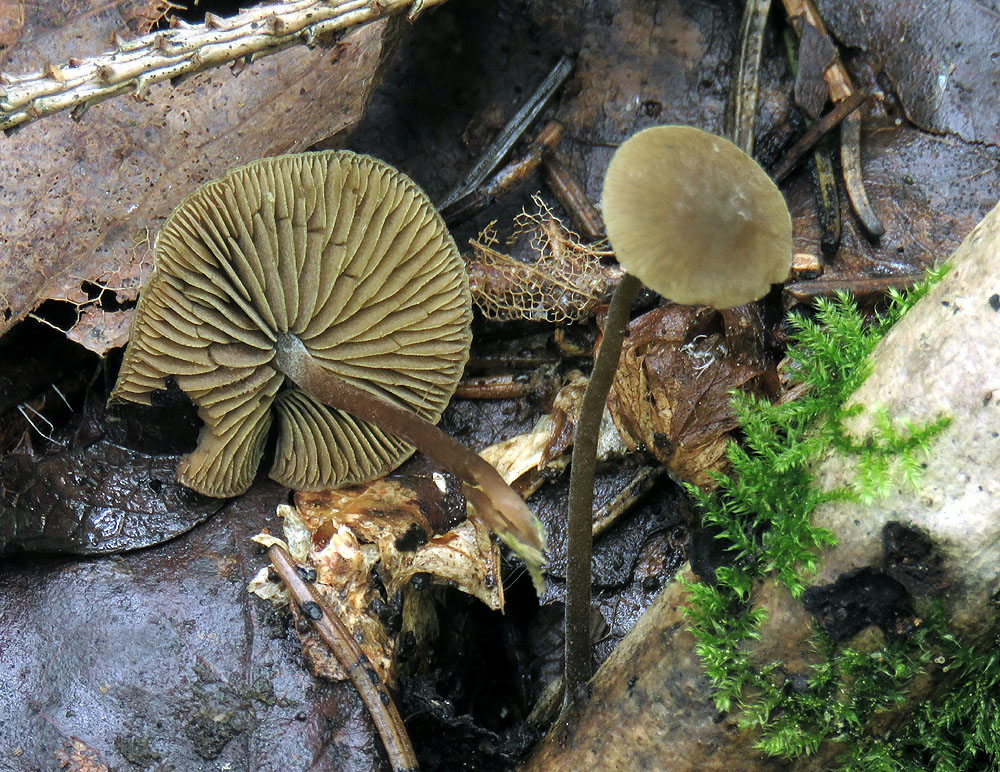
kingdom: Fungi
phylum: Basidiomycota
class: Agaricomycetes
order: Agaricales
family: Crepidotaceae
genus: Simocybe
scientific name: Simocybe centunculus
